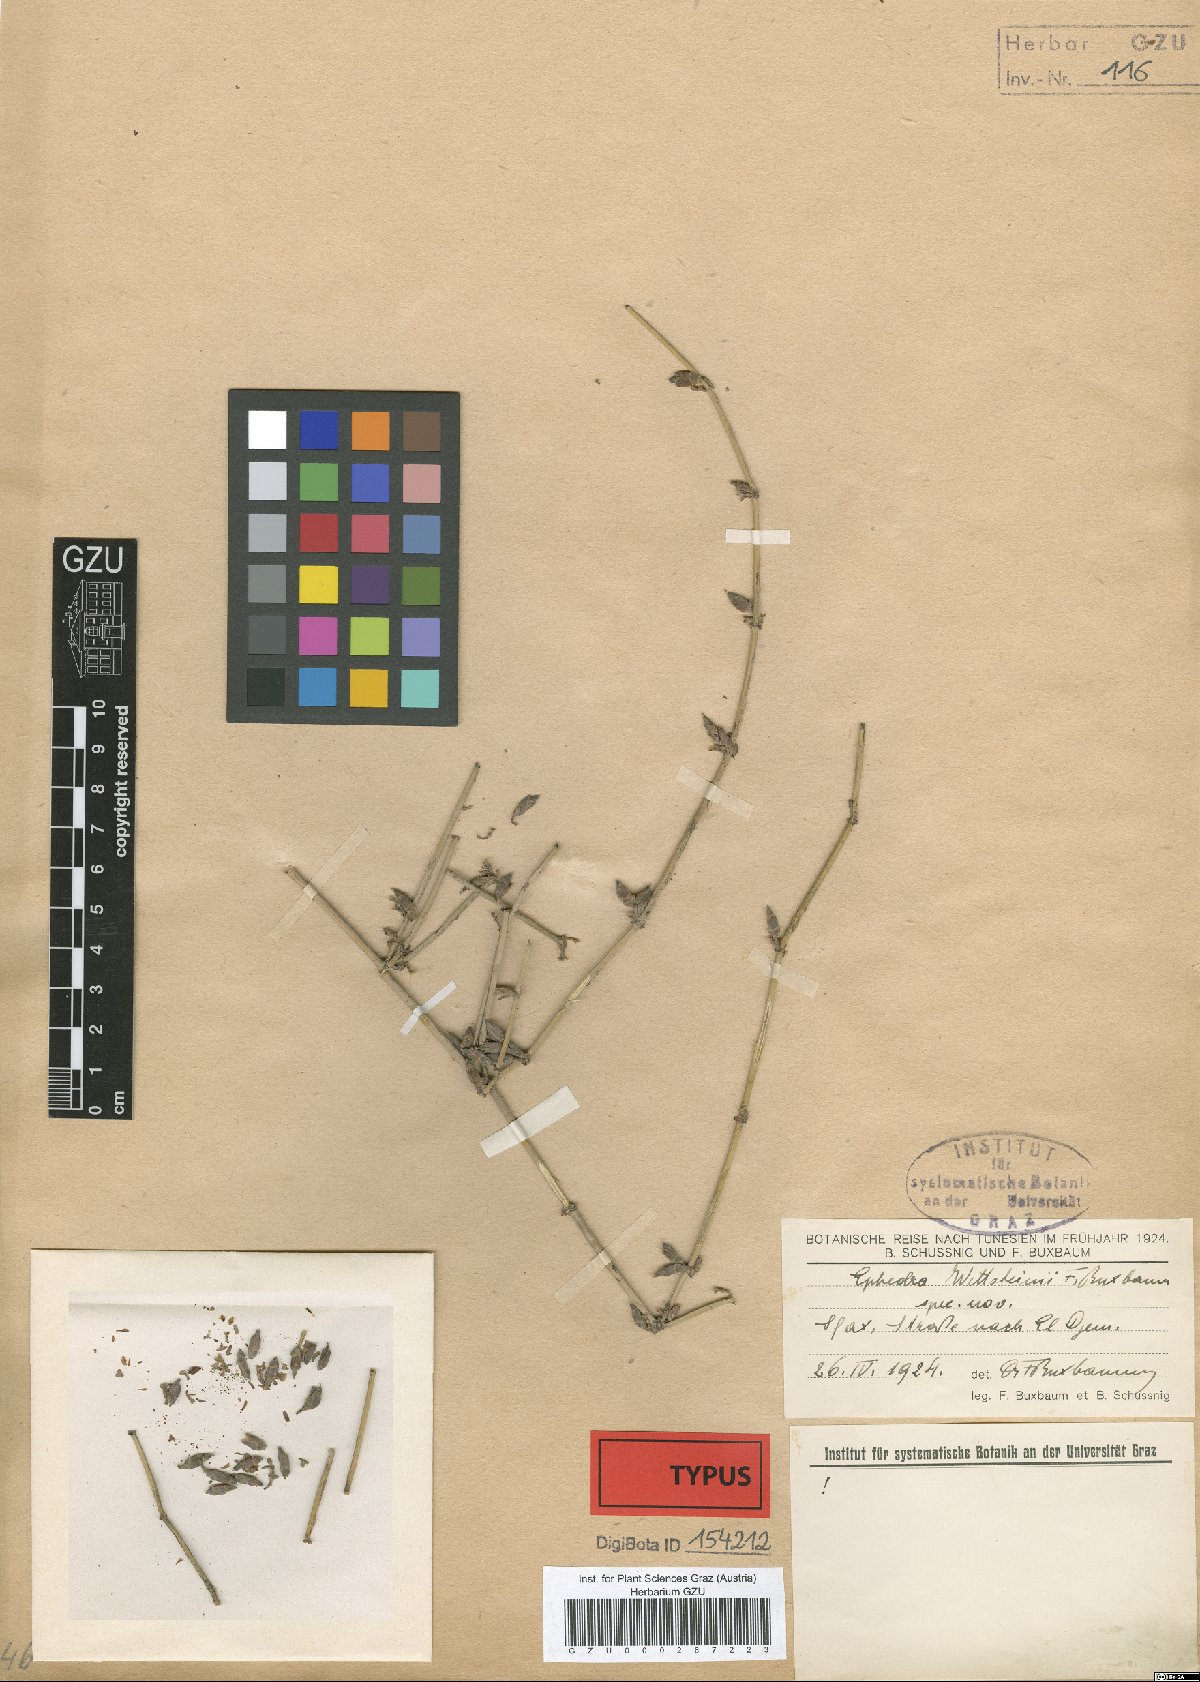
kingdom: Plantae
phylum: Tracheophyta
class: Gnetopsida
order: Ephedrales
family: Ephedraceae
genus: Ephedra
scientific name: Ephedra fragilis
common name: Joint pine
